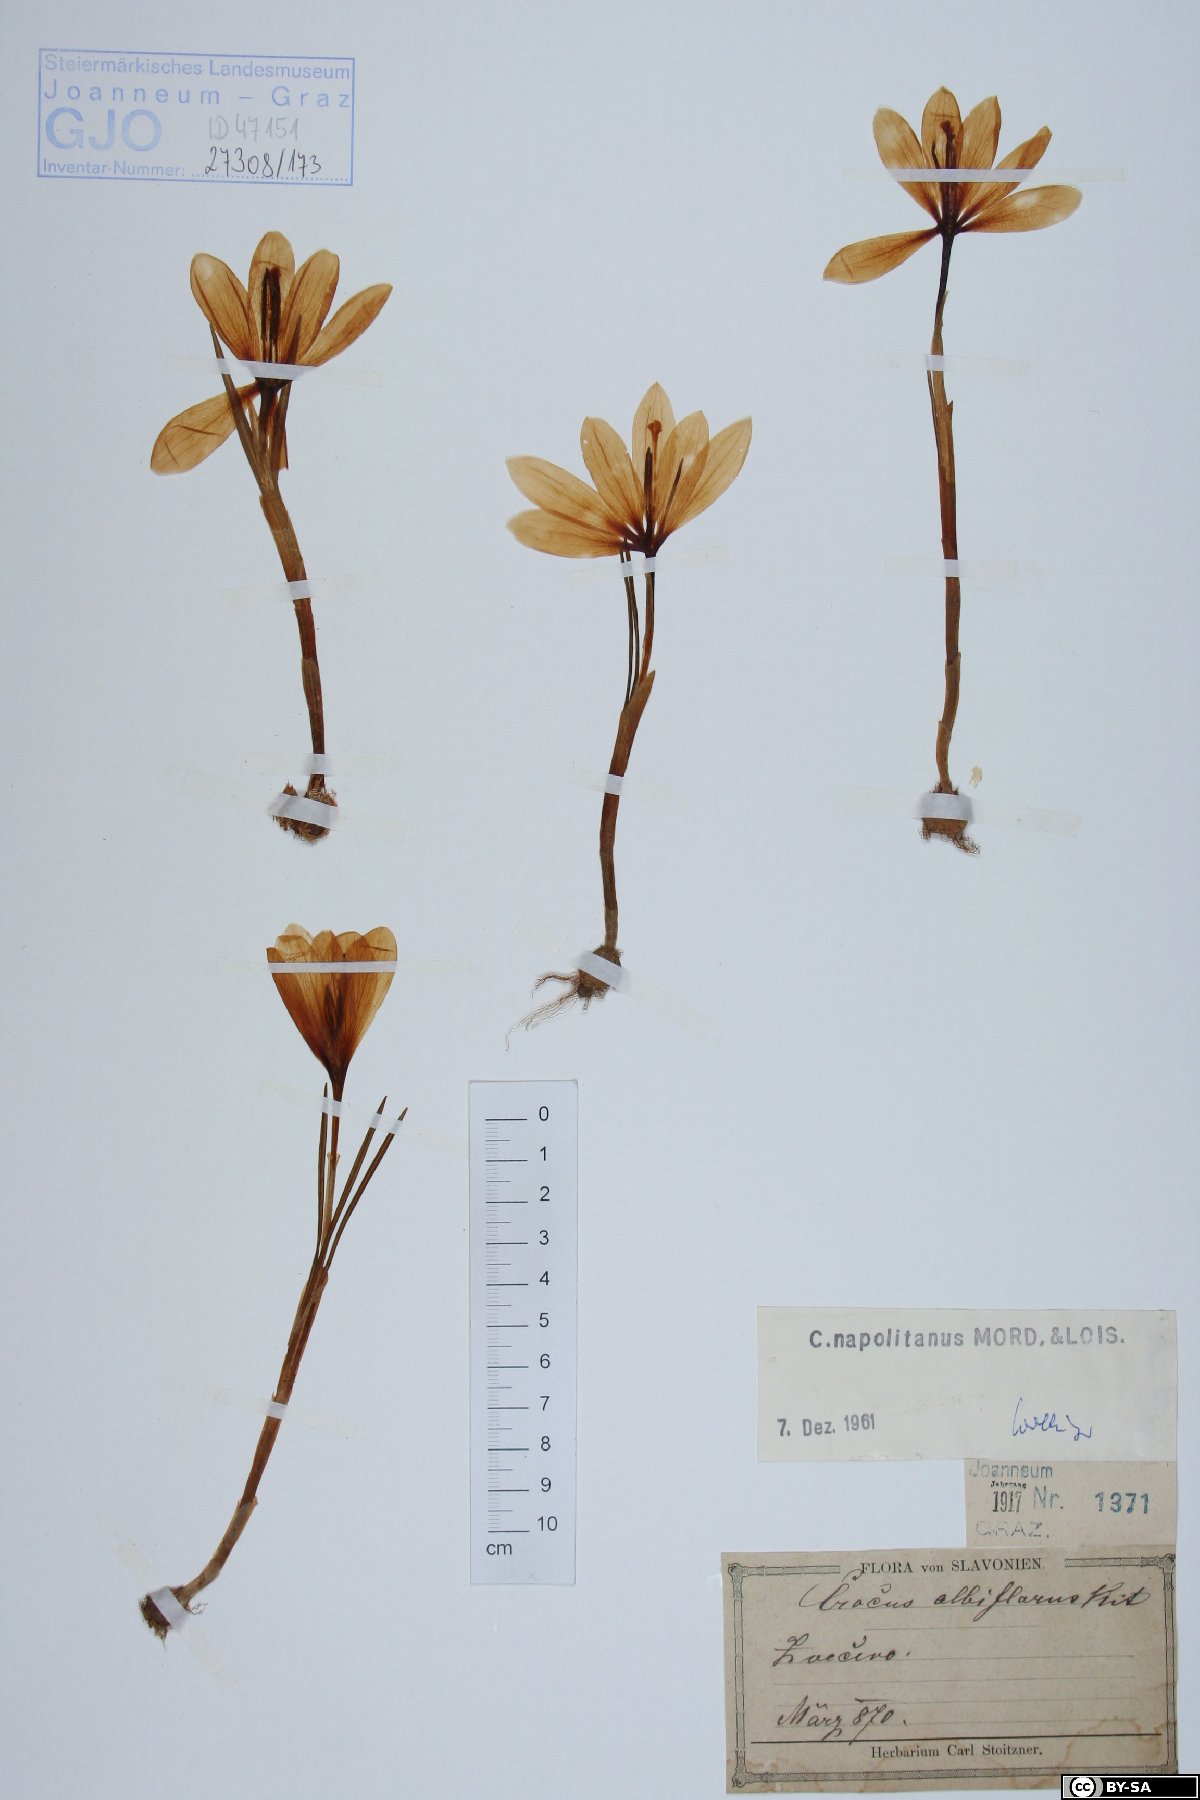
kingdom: Plantae
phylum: Tracheophyta
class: Liliopsida
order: Asparagales
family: Iridaceae
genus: Crocus
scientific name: Crocus vernus
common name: Spring crocus
